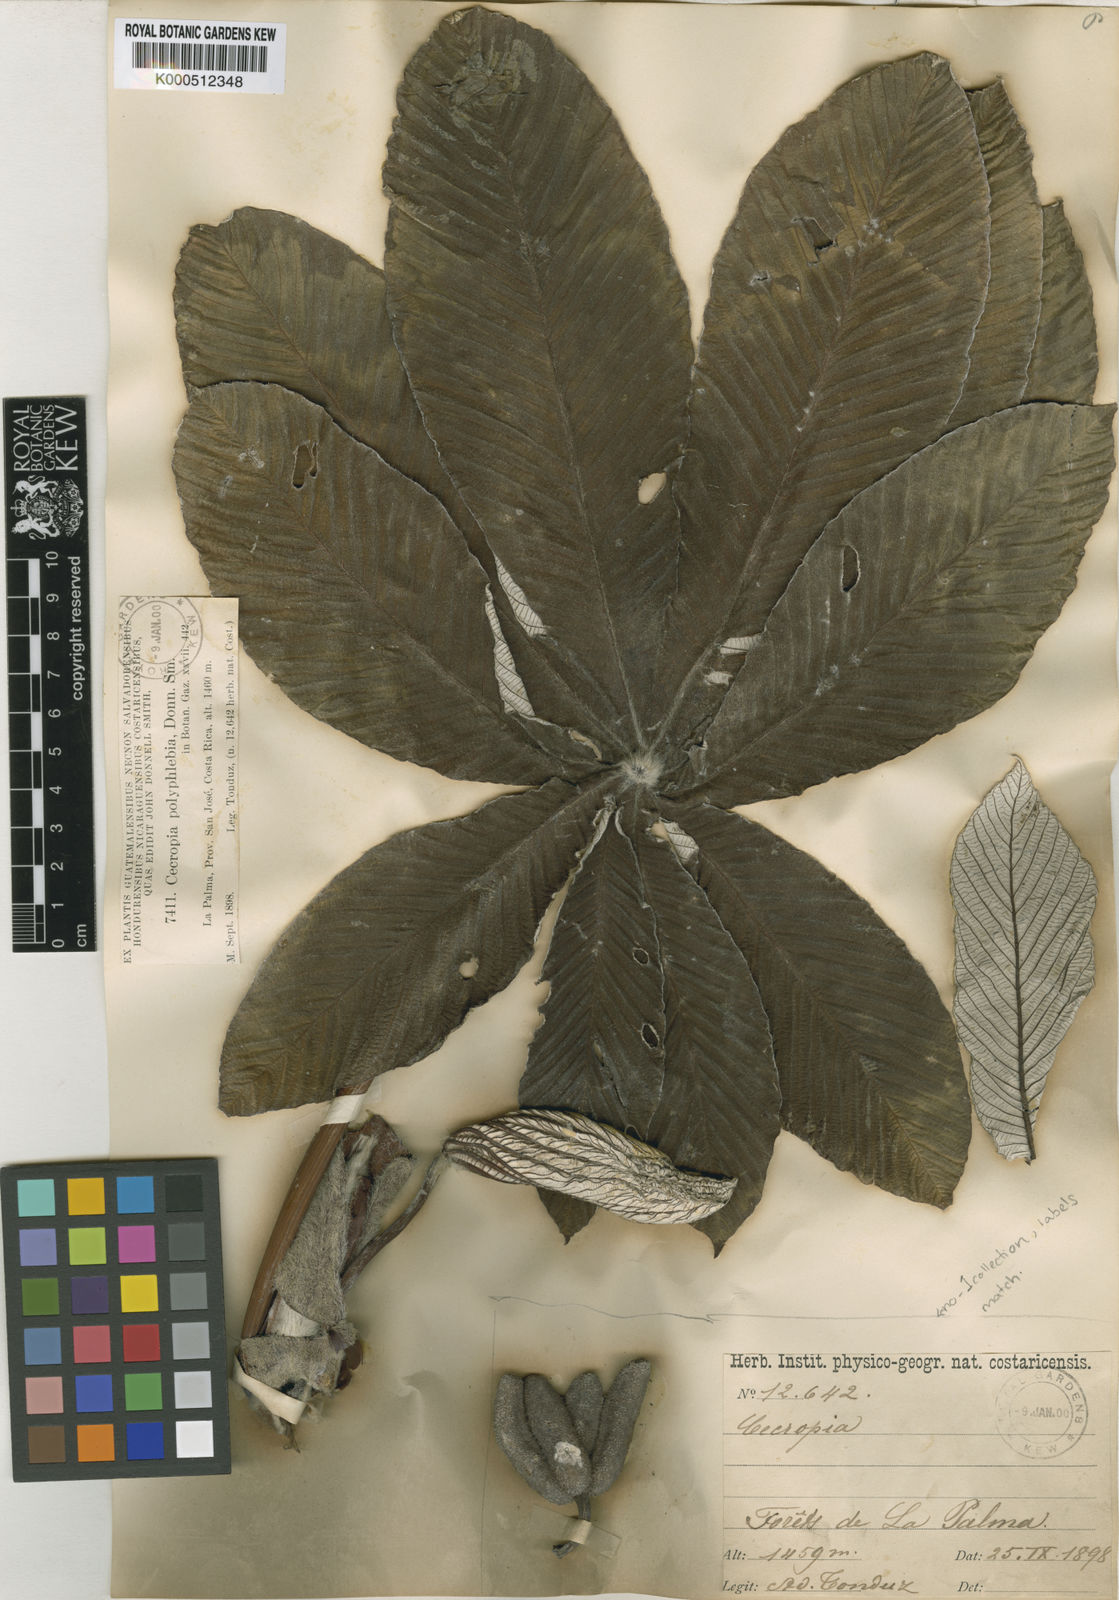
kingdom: Plantae
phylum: Tracheophyta
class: Magnoliopsida
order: Rosales
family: Urticaceae
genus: Cecropia
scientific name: Cecropia angustifolia
